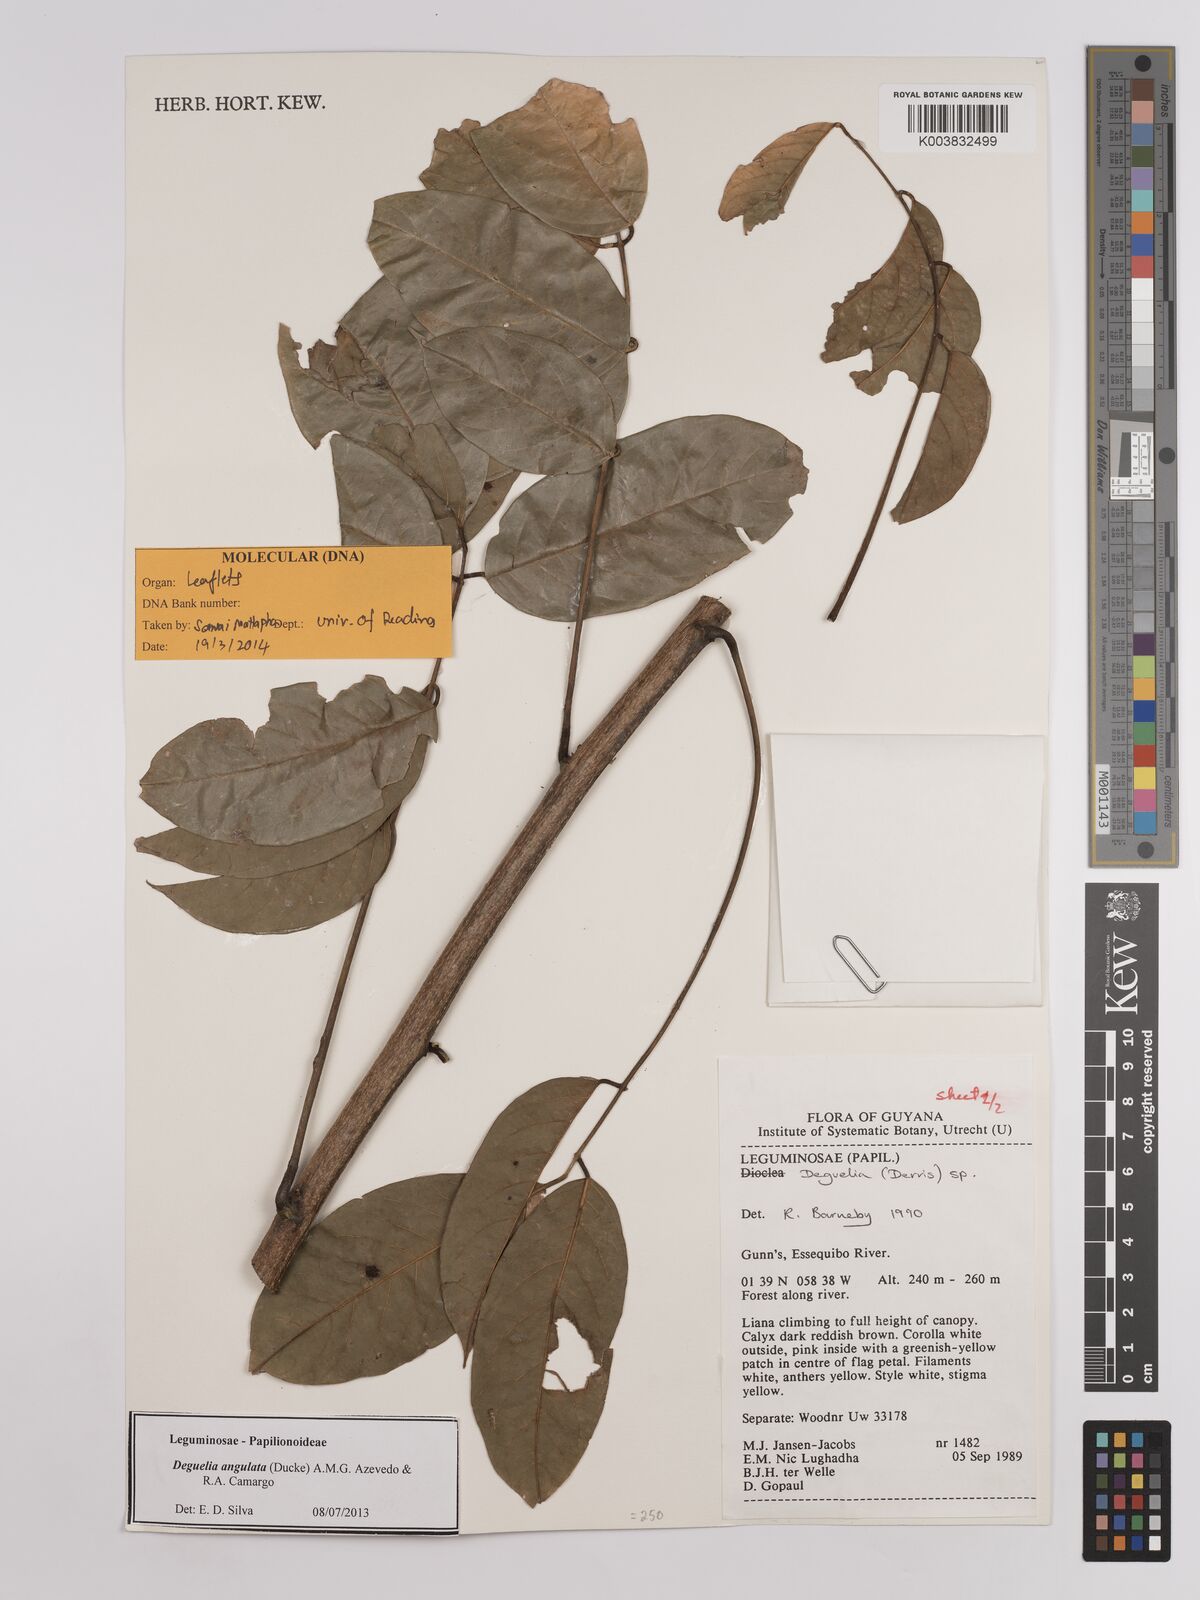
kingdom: Plantae
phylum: Tracheophyta
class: Magnoliopsida
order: Fabales
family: Fabaceae
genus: Deguelia
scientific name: Deguelia angulata
